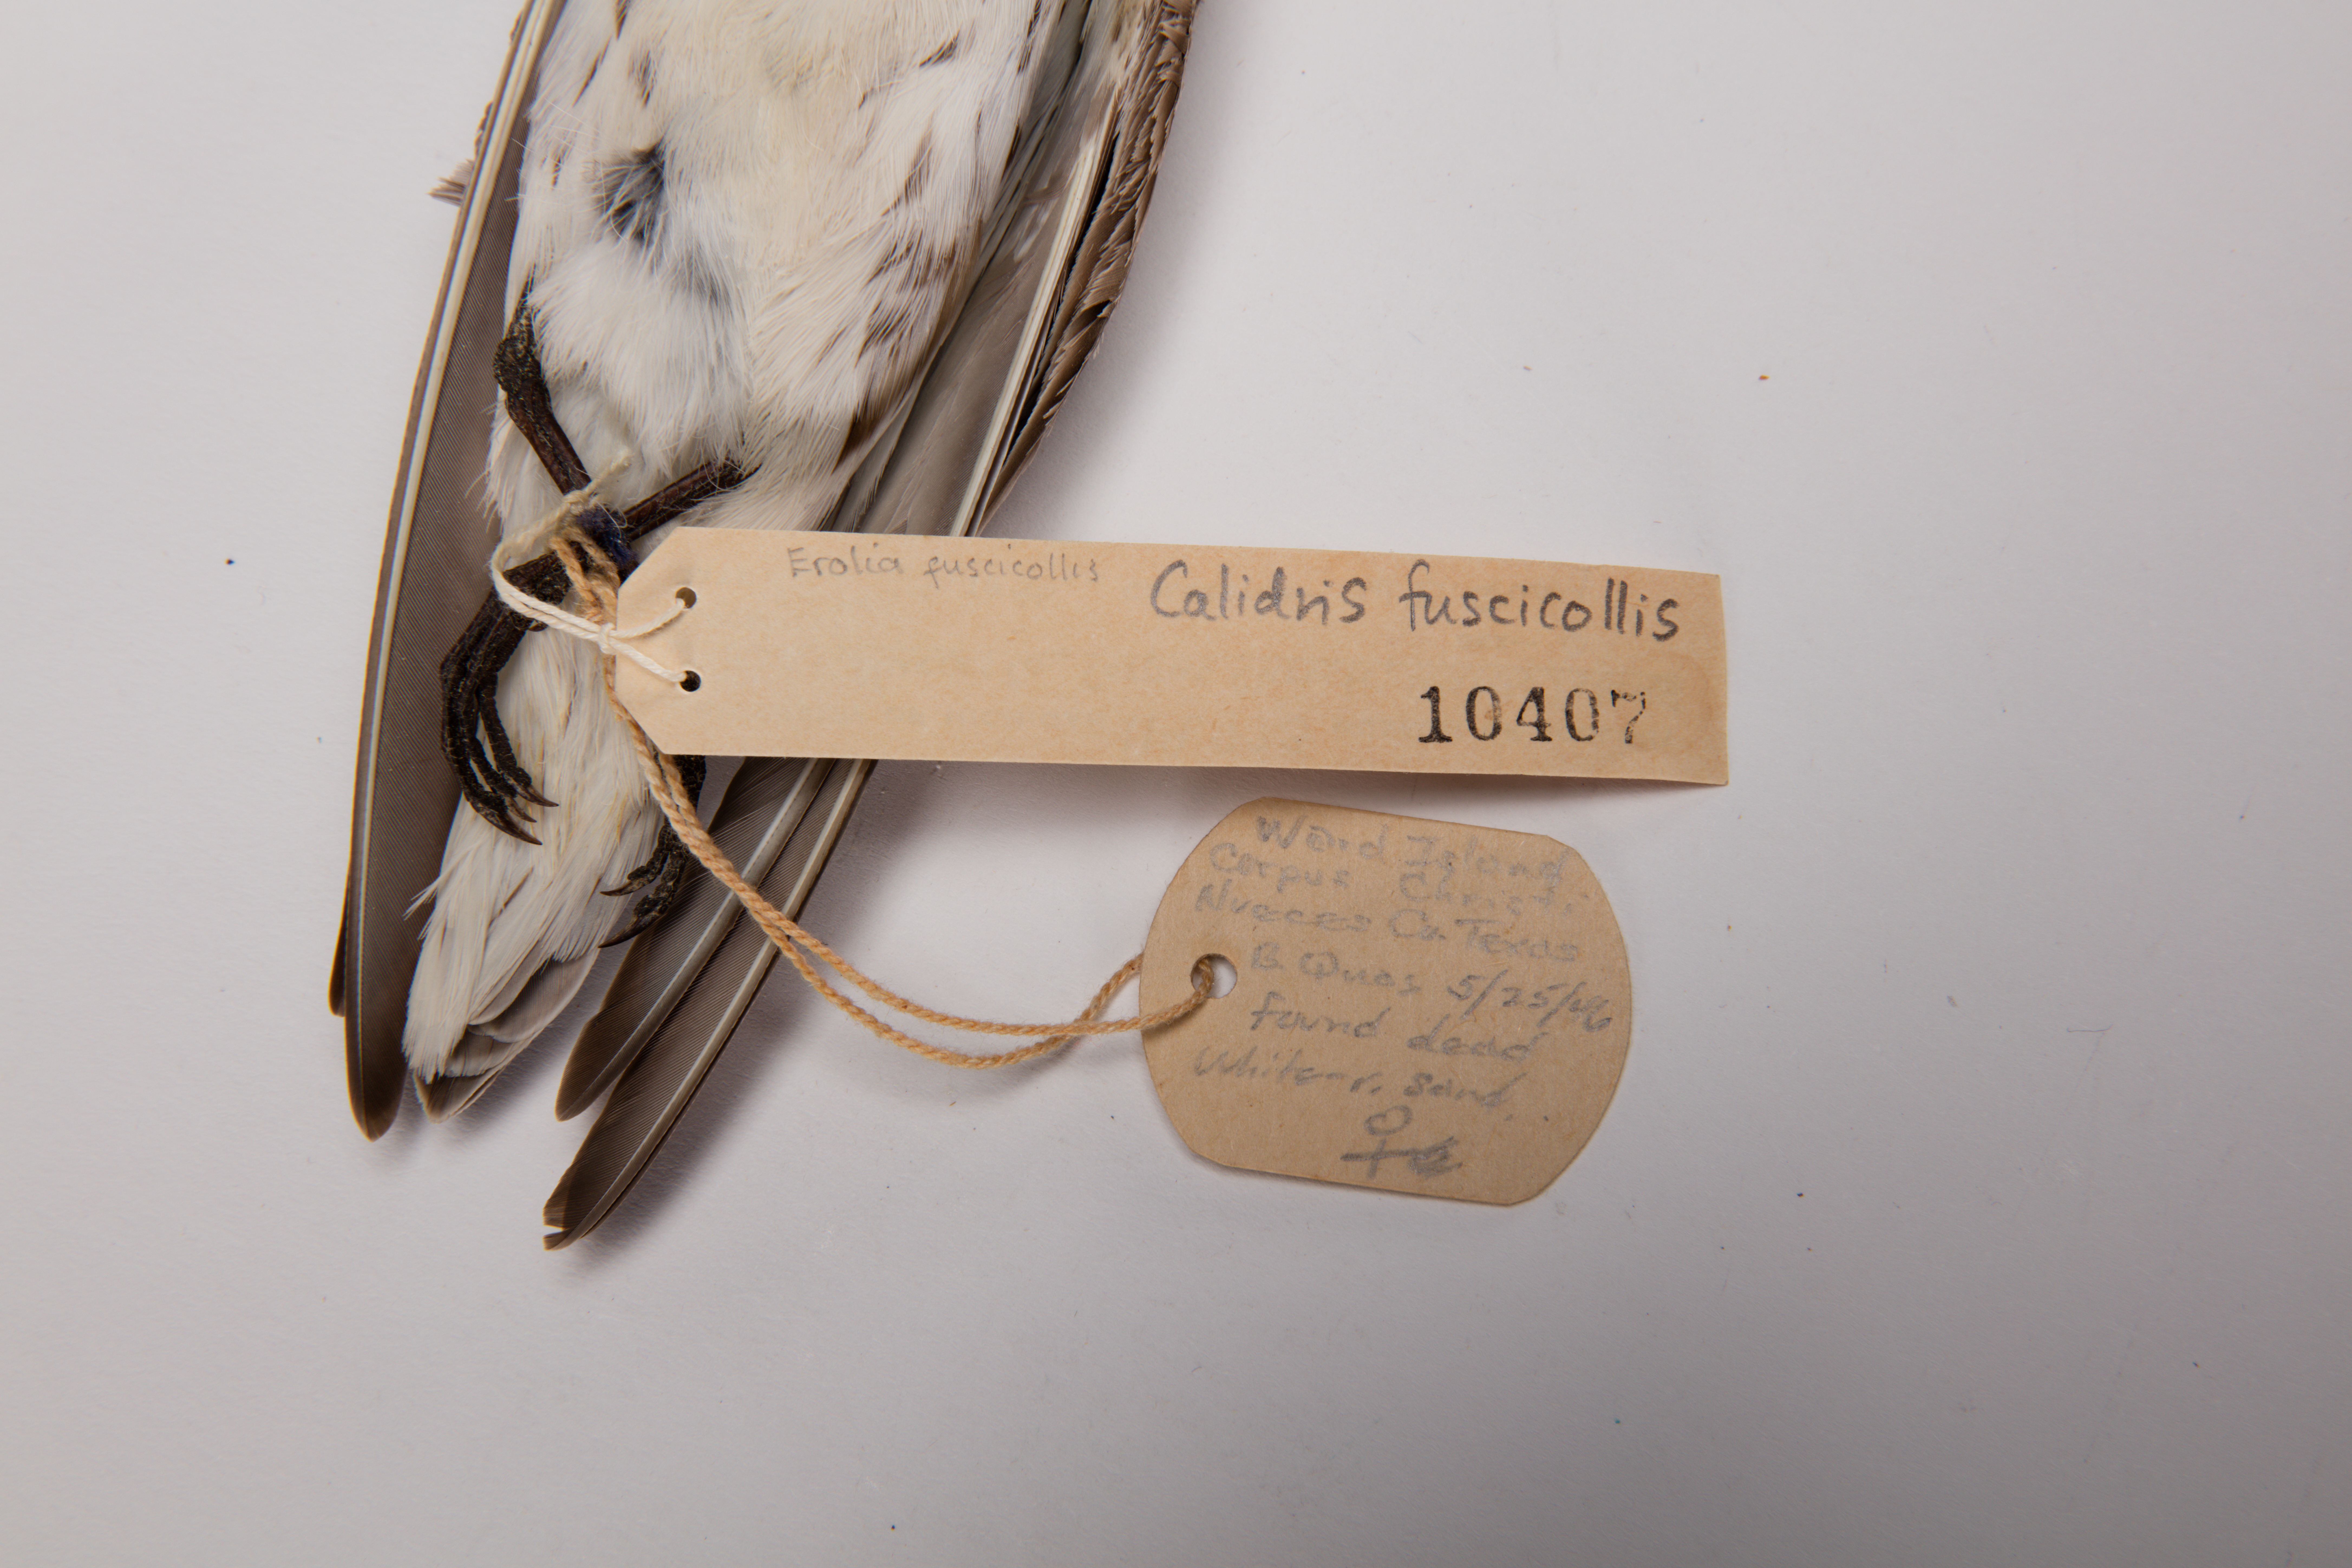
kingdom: Animalia
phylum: Chordata
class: Aves
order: Charadriiformes
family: Scolopacidae
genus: Calidris
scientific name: Calidris fuscicollis
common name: White-rumped sandpiper
